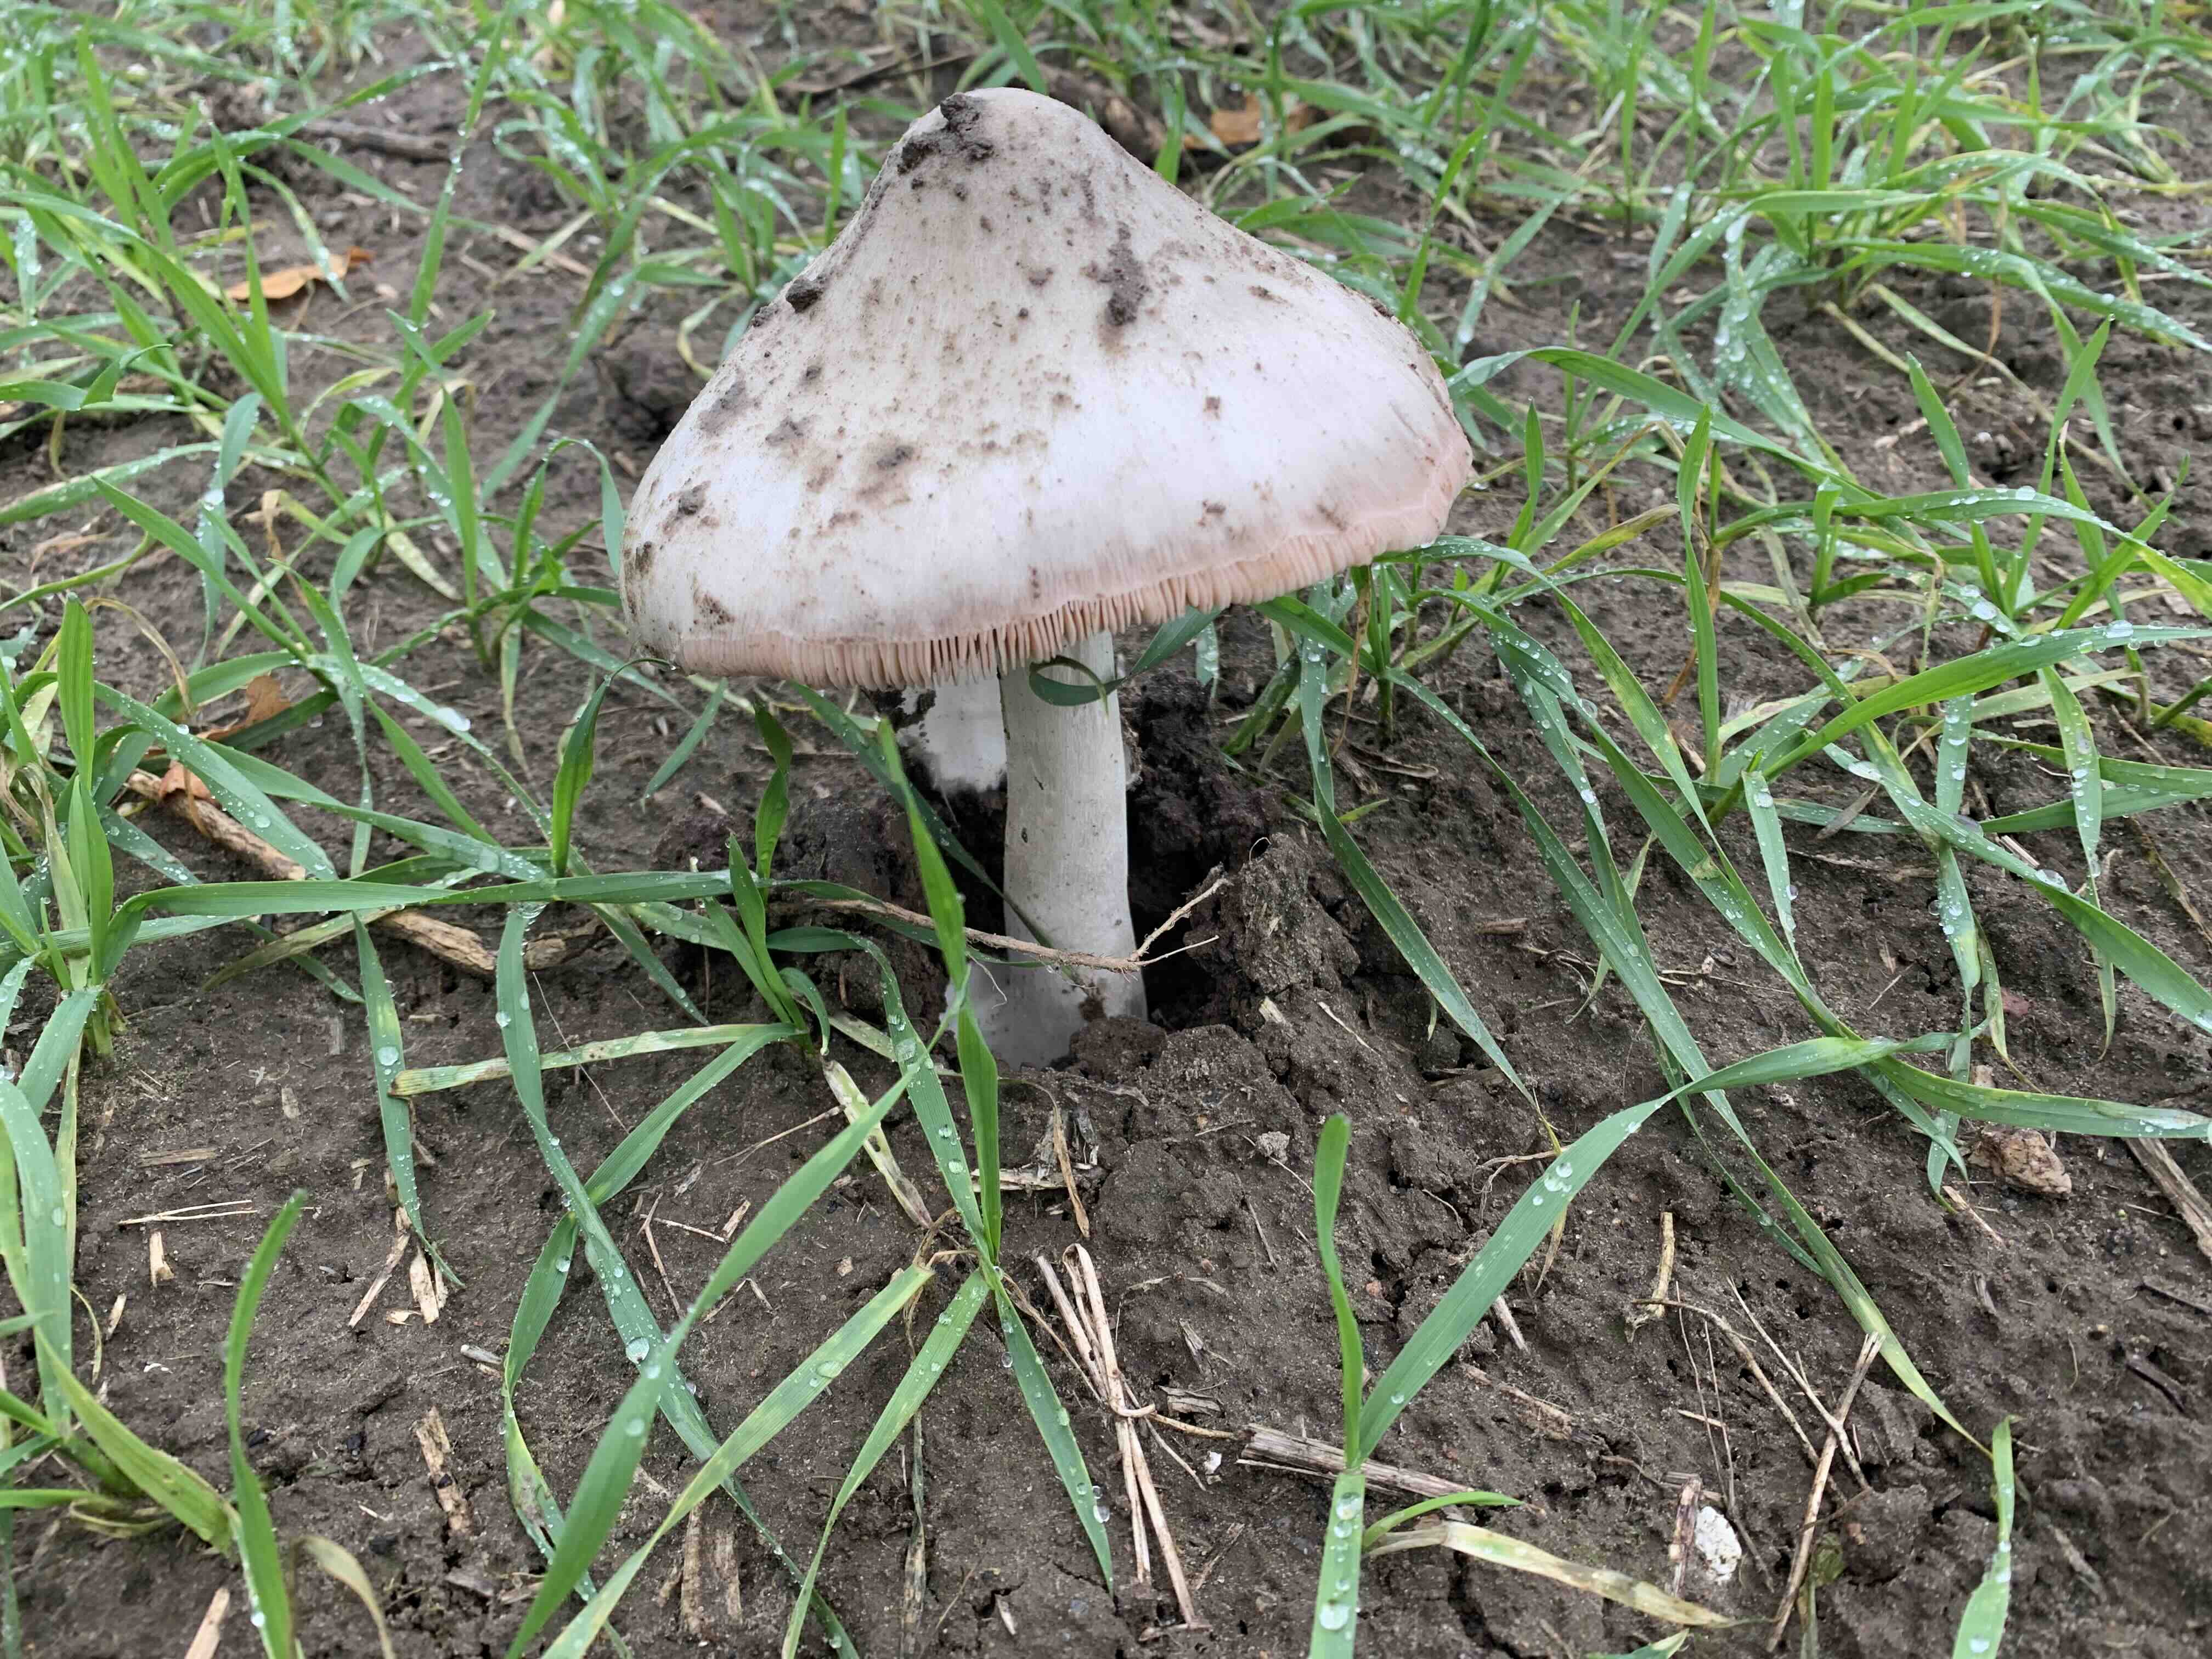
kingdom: Fungi
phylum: Basidiomycota
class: Agaricomycetes
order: Agaricales
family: Pluteaceae
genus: Volvopluteus
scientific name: Volvopluteus gloiocephalus
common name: høj posesvamp
